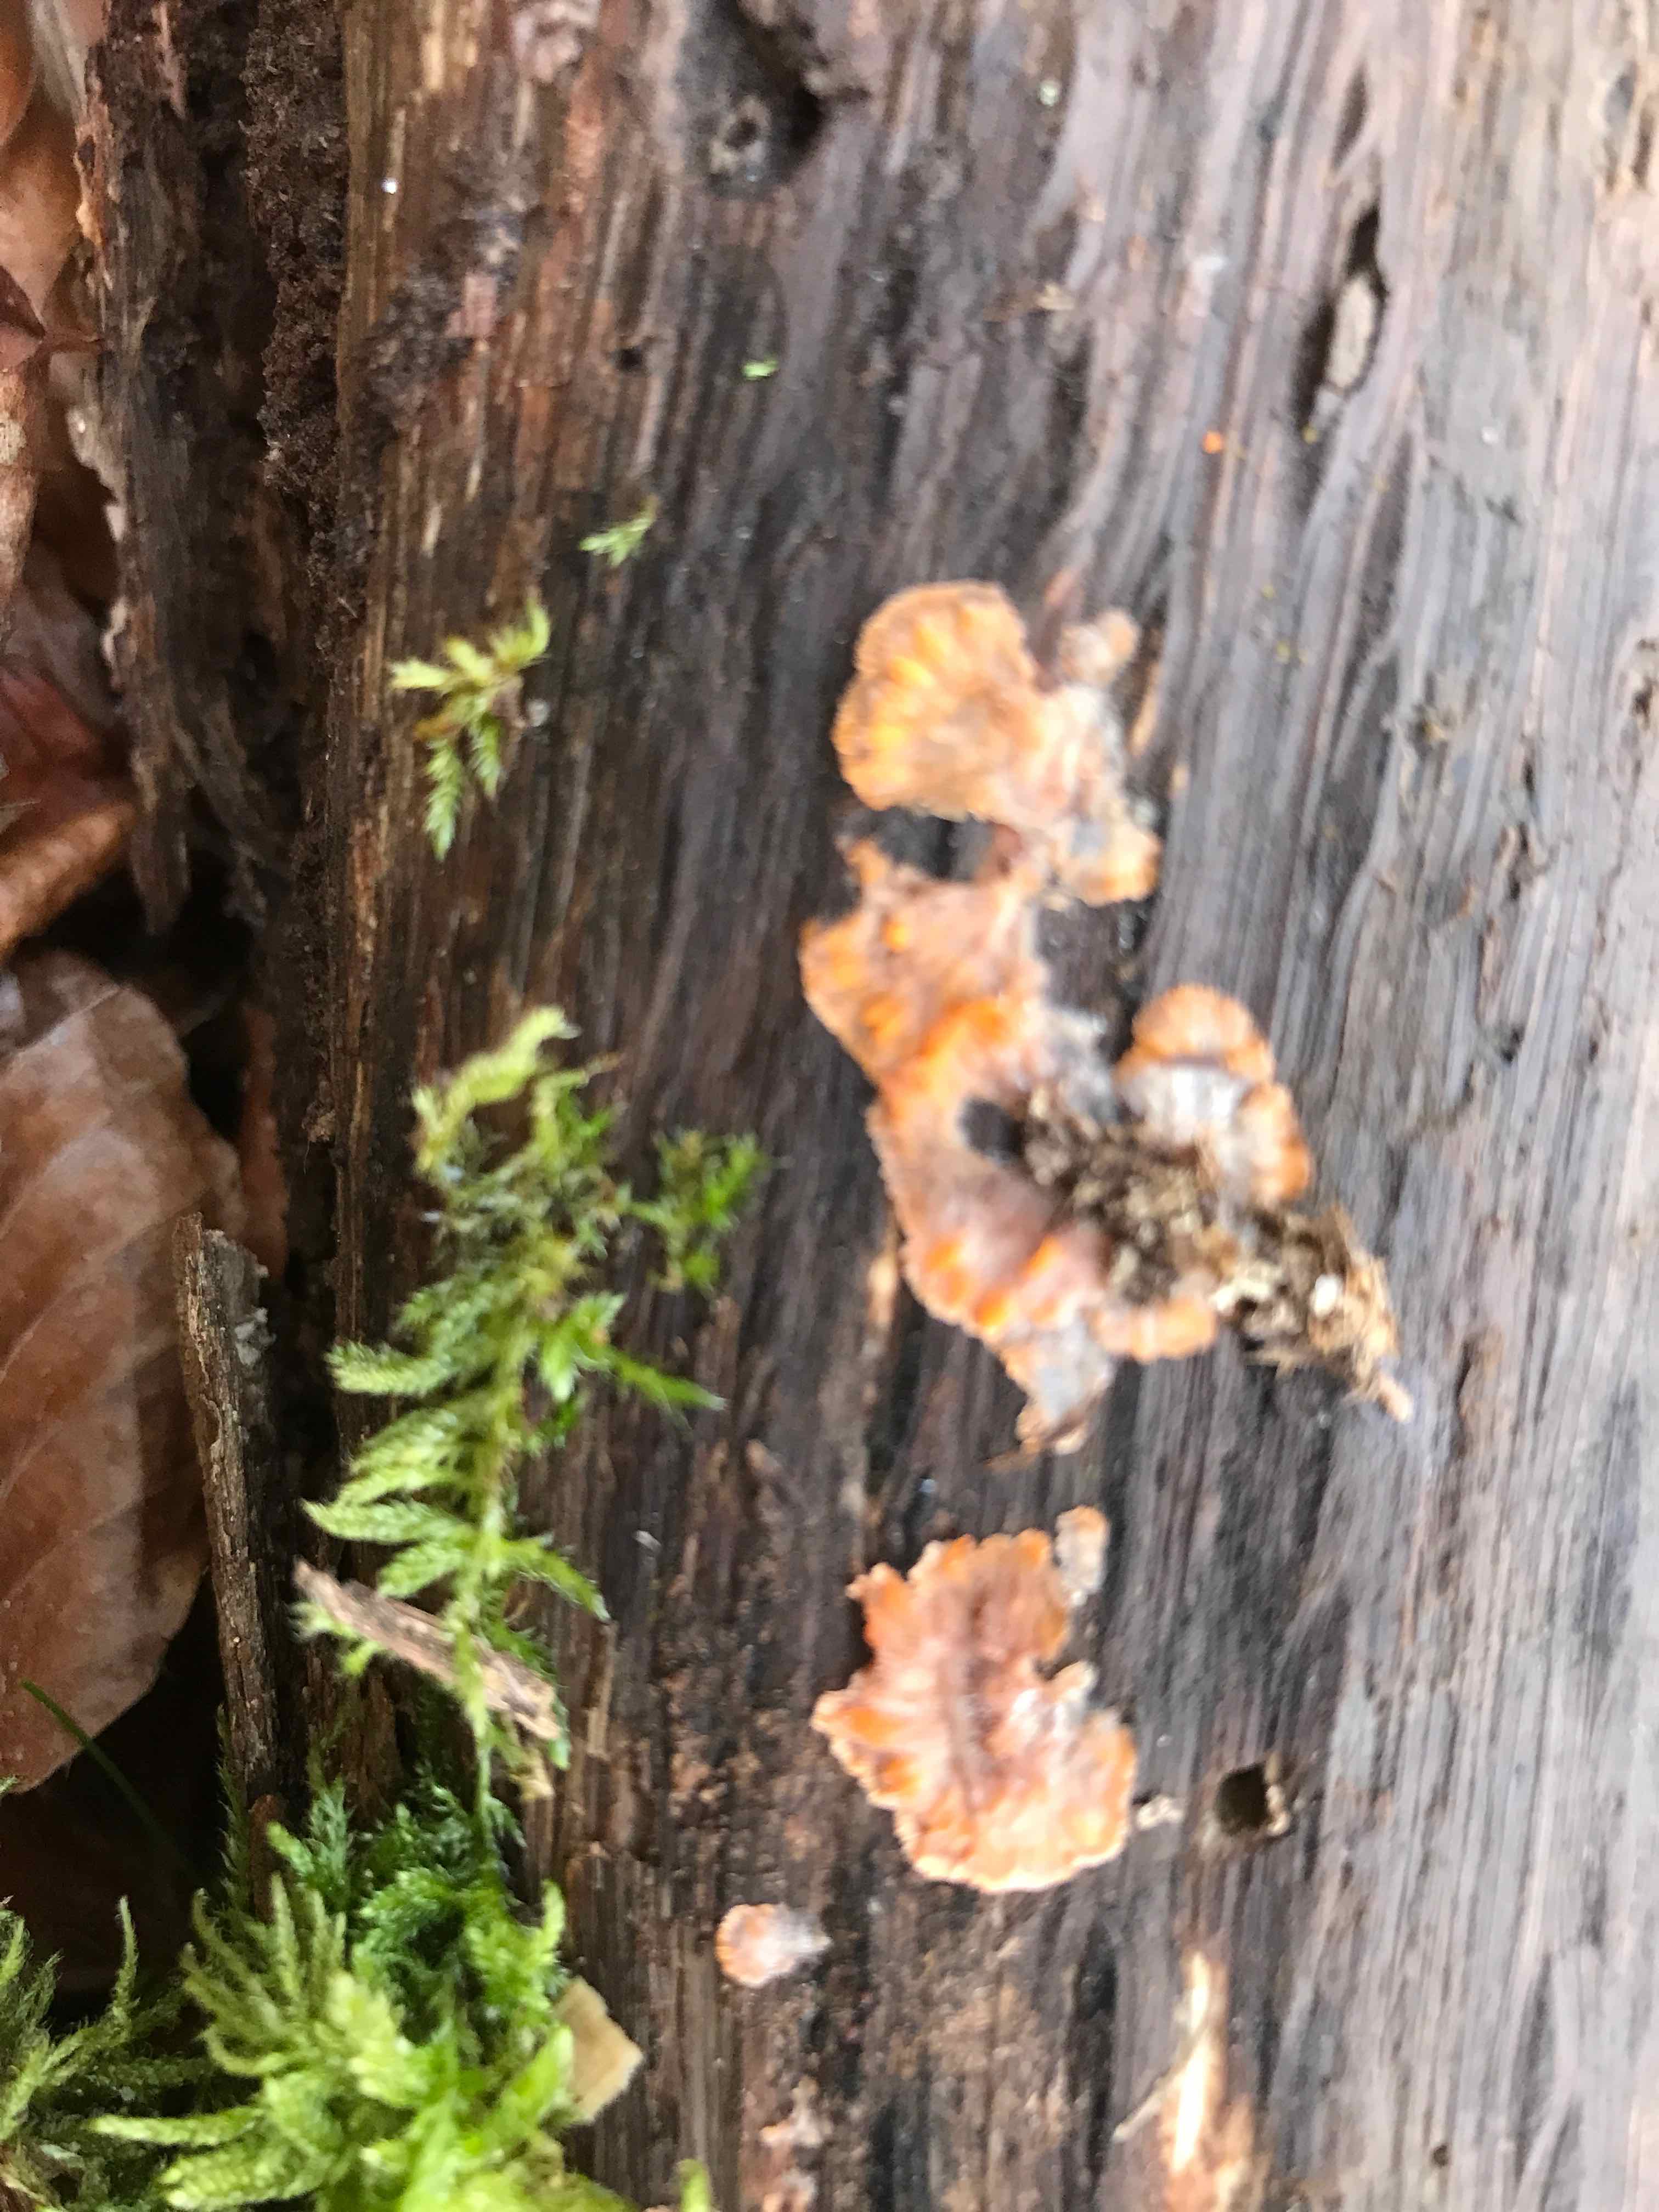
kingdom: Fungi
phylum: Basidiomycota
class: Agaricomycetes
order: Polyporales
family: Meruliaceae
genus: Phlebia
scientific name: Phlebia radiata
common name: stråle-åresvamp
